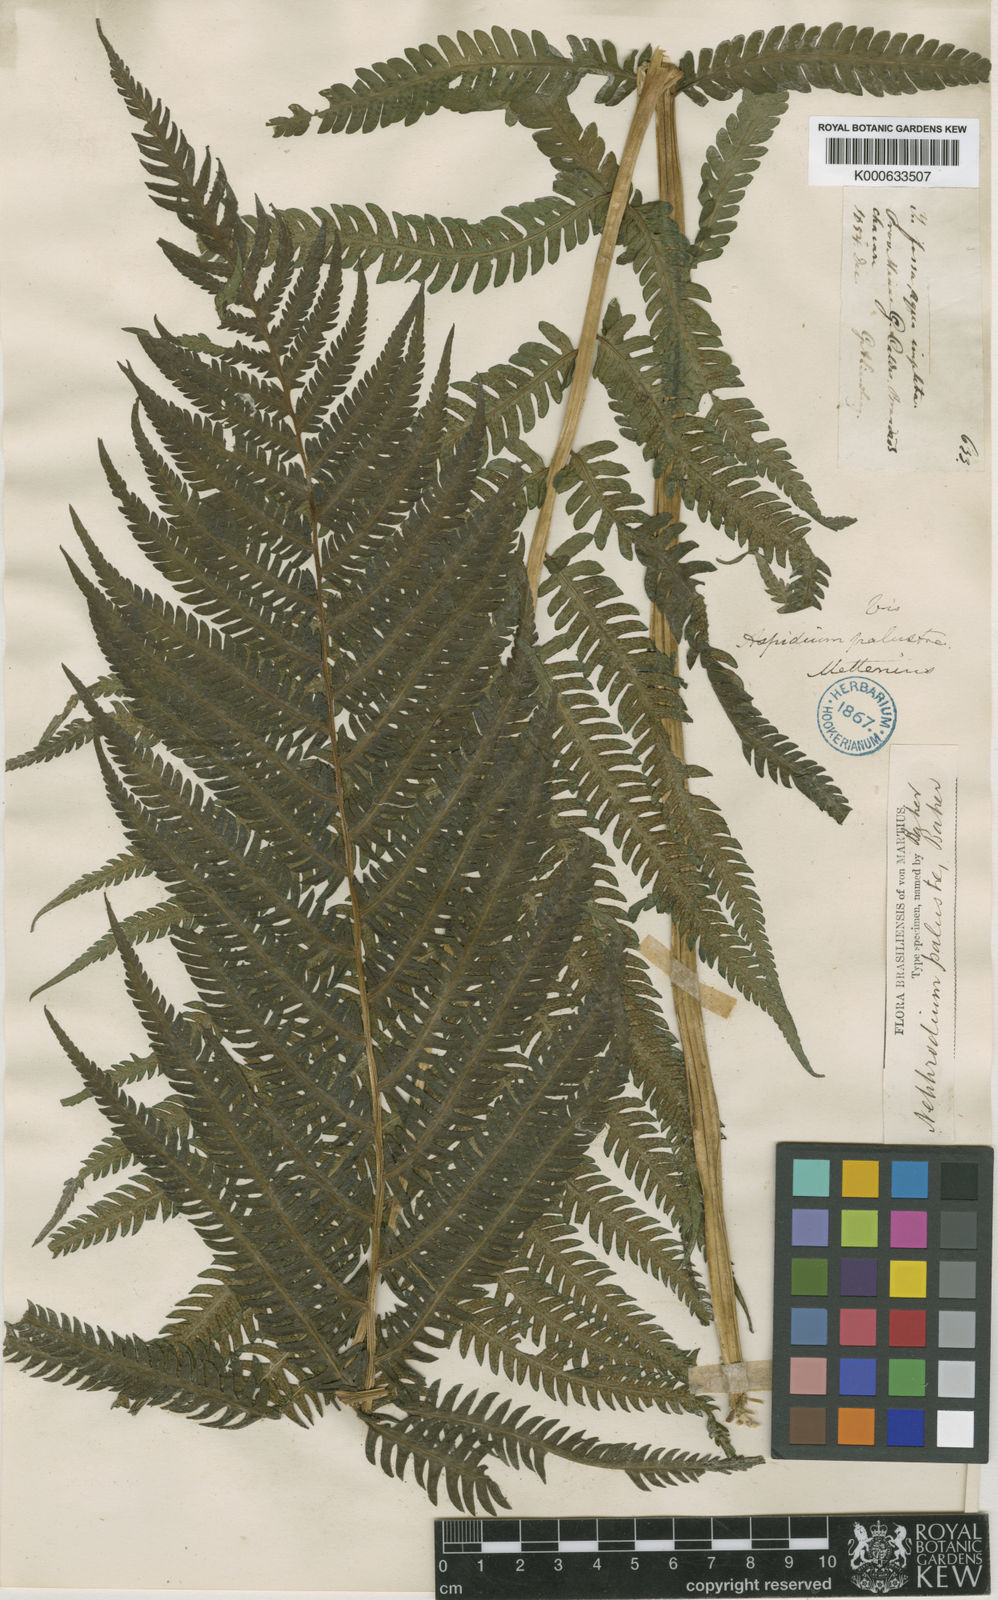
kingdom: Plantae
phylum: Tracheophyta
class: Polypodiopsida
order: Polypodiales
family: Thelypteridaceae
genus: Amauropelta
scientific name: Amauropelta metteniana
